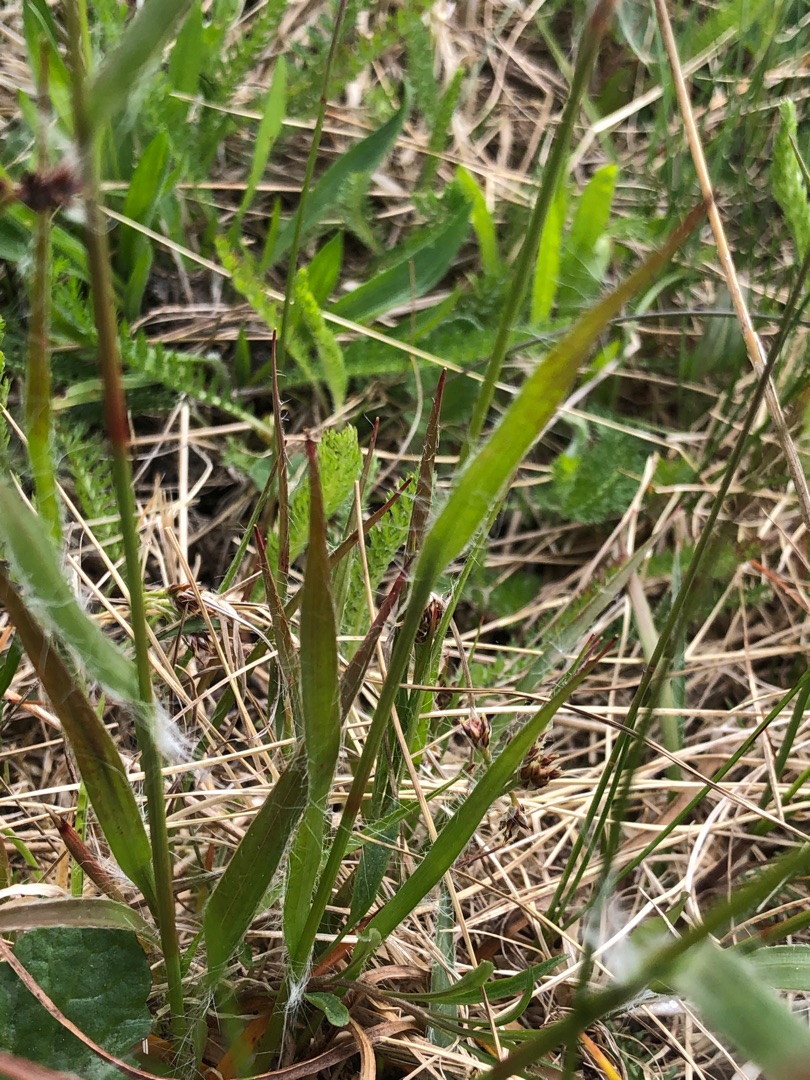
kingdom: Plantae
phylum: Tracheophyta
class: Liliopsida
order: Poales
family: Juncaceae
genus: Luzula
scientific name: Luzula campestris
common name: Mark-frytle
